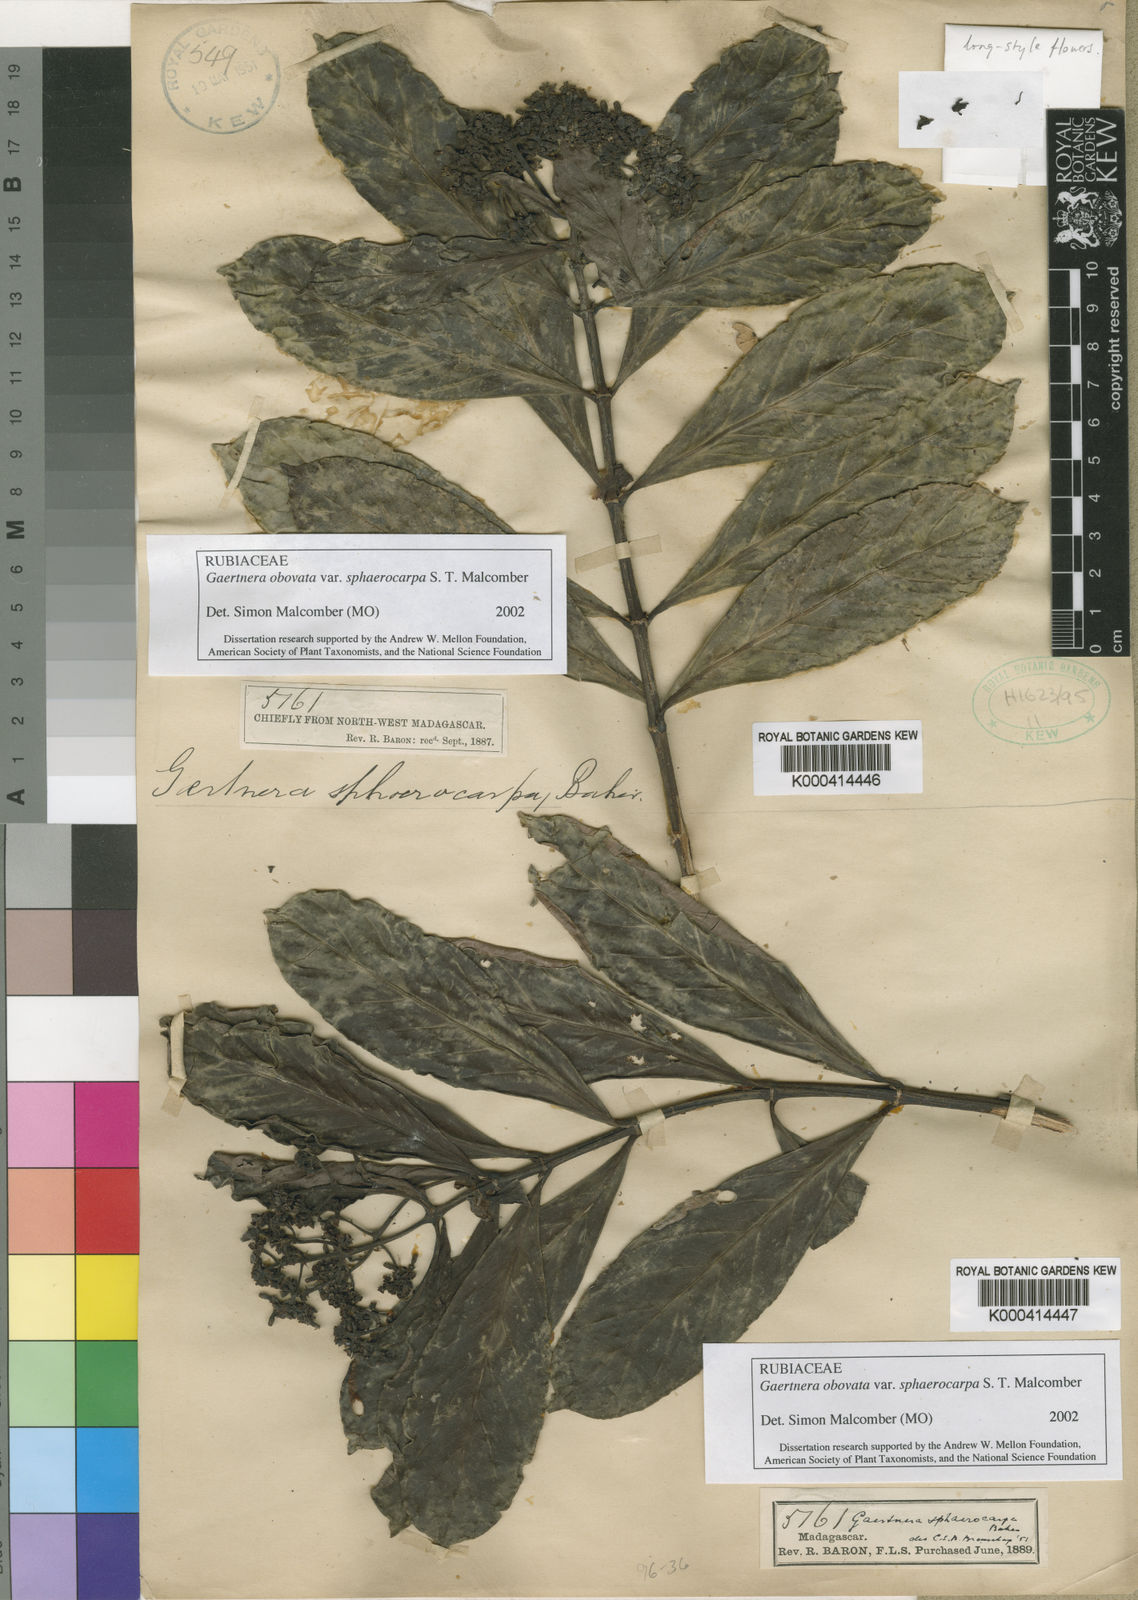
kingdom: Plantae
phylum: Tracheophyta
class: Magnoliopsida
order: Gentianales
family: Rubiaceae
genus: Gaertnera
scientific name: Gaertnera obovata
